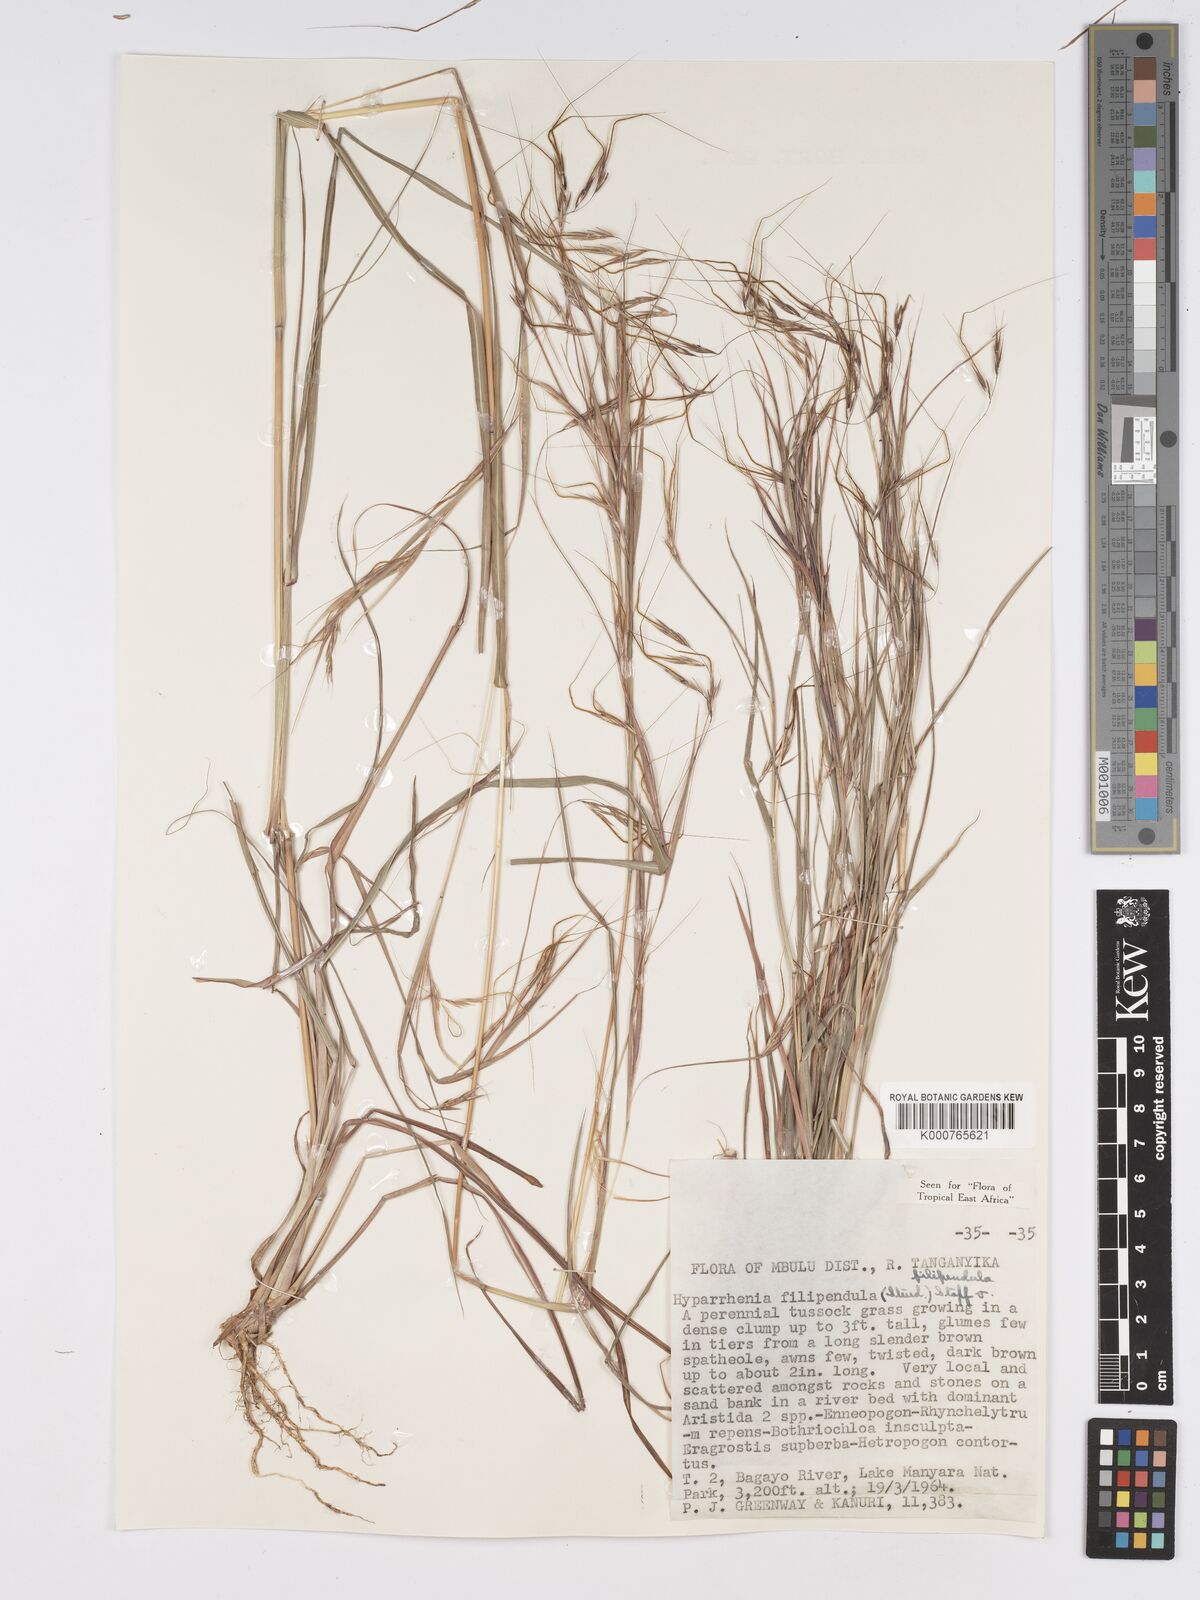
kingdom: Plantae
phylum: Tracheophyta
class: Liliopsida
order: Poales
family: Poaceae
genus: Hyparrhenia
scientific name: Hyparrhenia filipendula
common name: Tambookie grass
